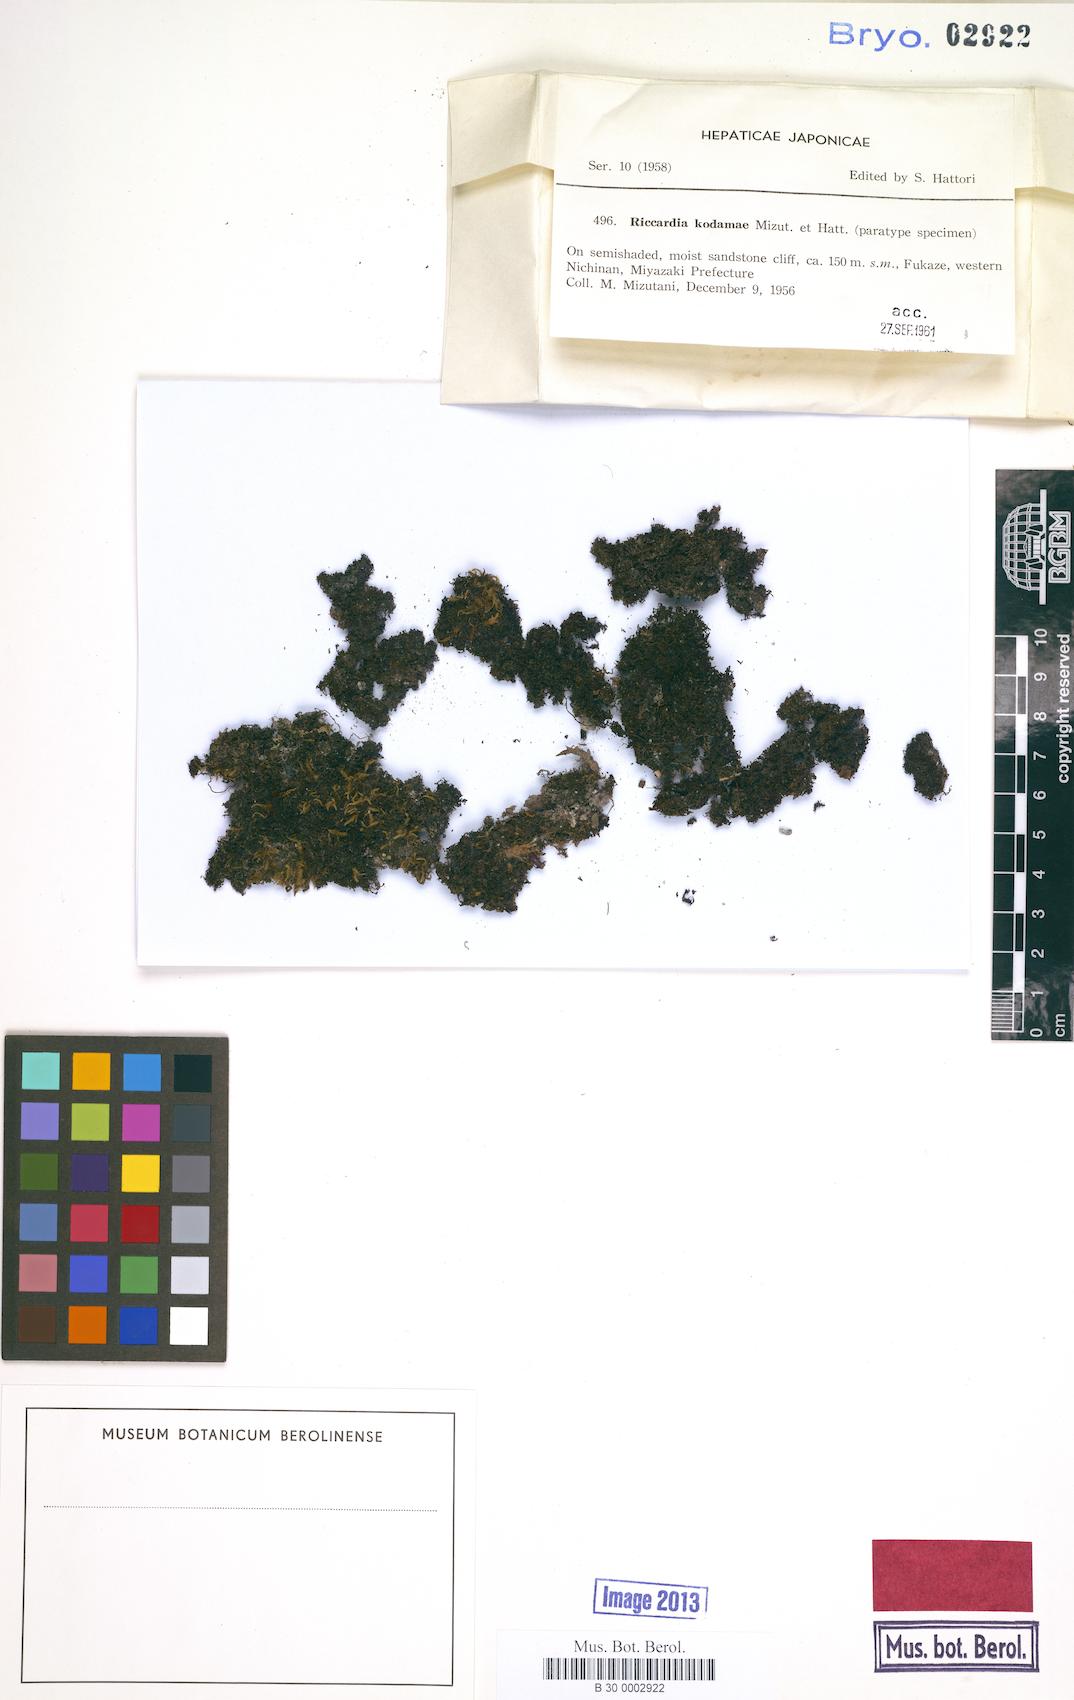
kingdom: Plantae
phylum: Marchantiophyta
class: Jungermanniopsida
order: Metzgeriales
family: Aneuraceae
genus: Riccardia
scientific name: Riccardia kodamae
